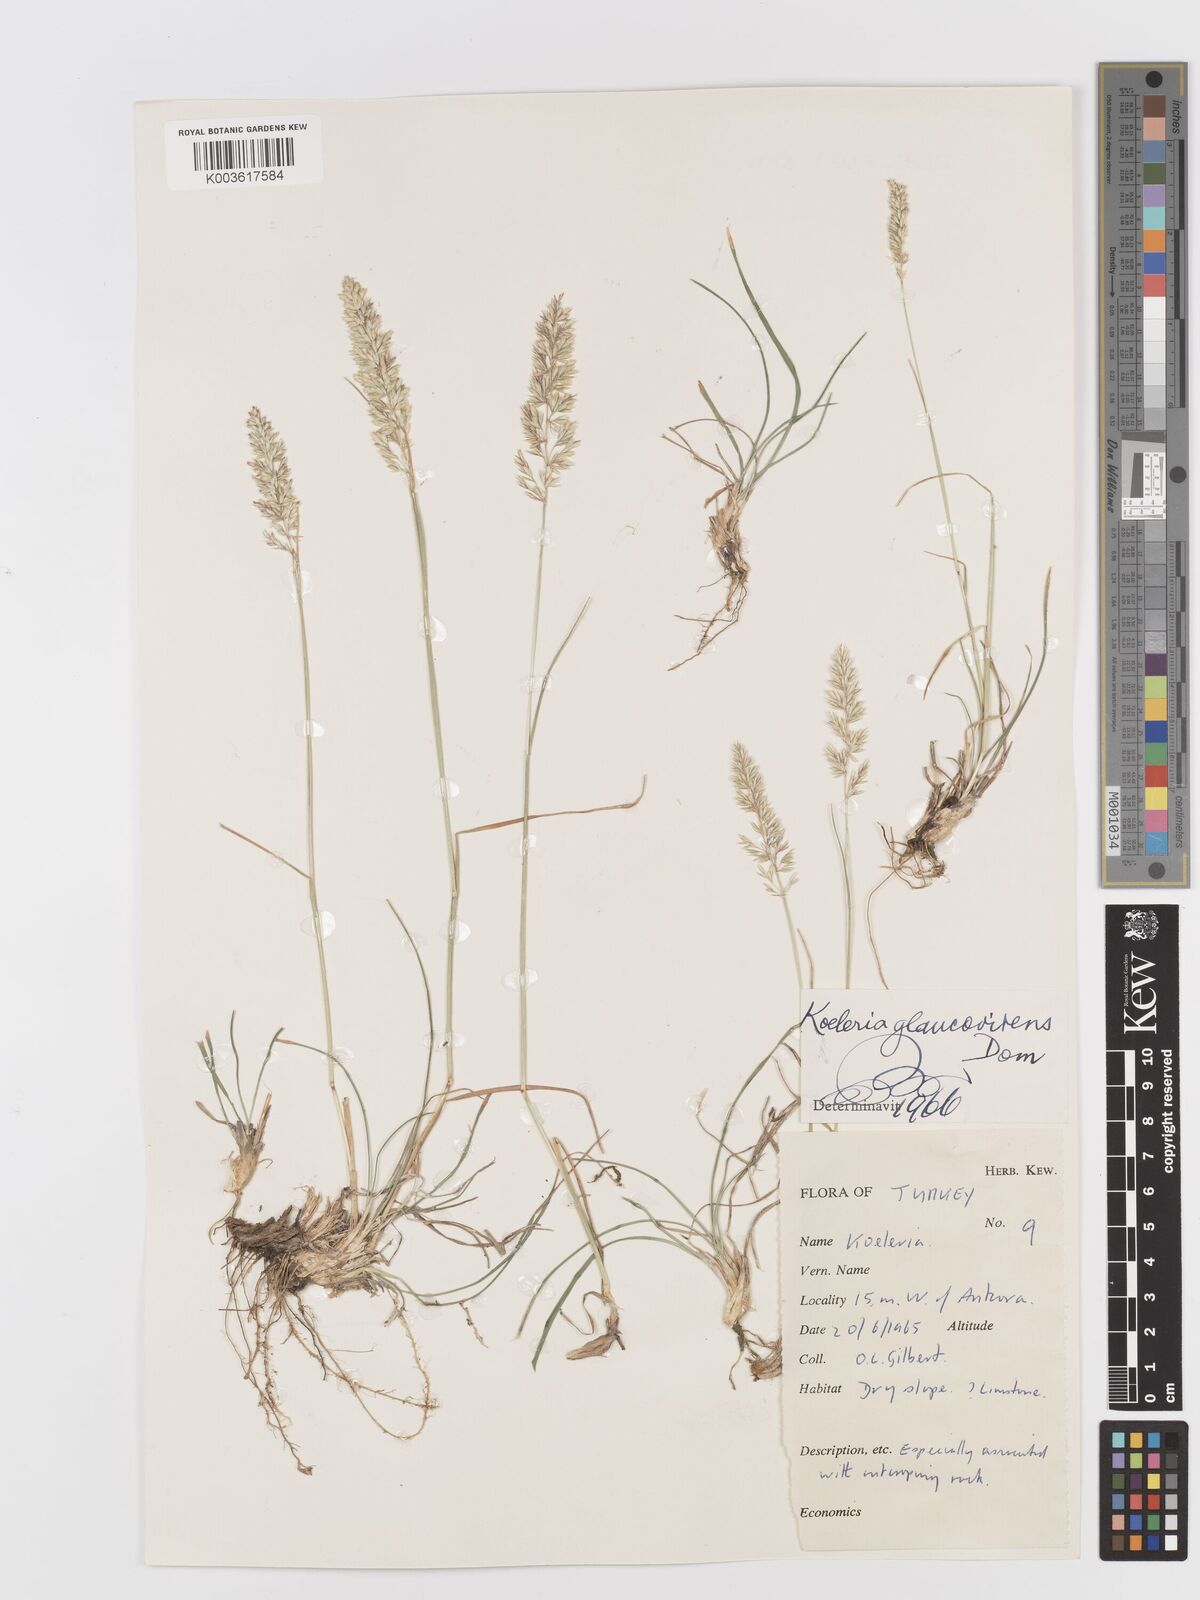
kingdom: Plantae
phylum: Tracheophyta
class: Liliopsida
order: Poales
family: Poaceae
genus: Koeleria
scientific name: Koeleria macrantha
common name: Crested hair-grass
